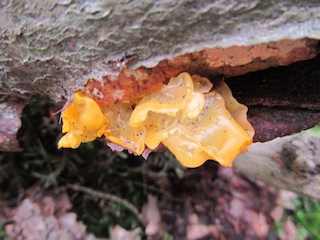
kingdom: Fungi
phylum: Basidiomycota
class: Tremellomycetes
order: Tremellales
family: Tremellaceae
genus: Tremella
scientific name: Tremella mesenterica
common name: gul bævresvamp
